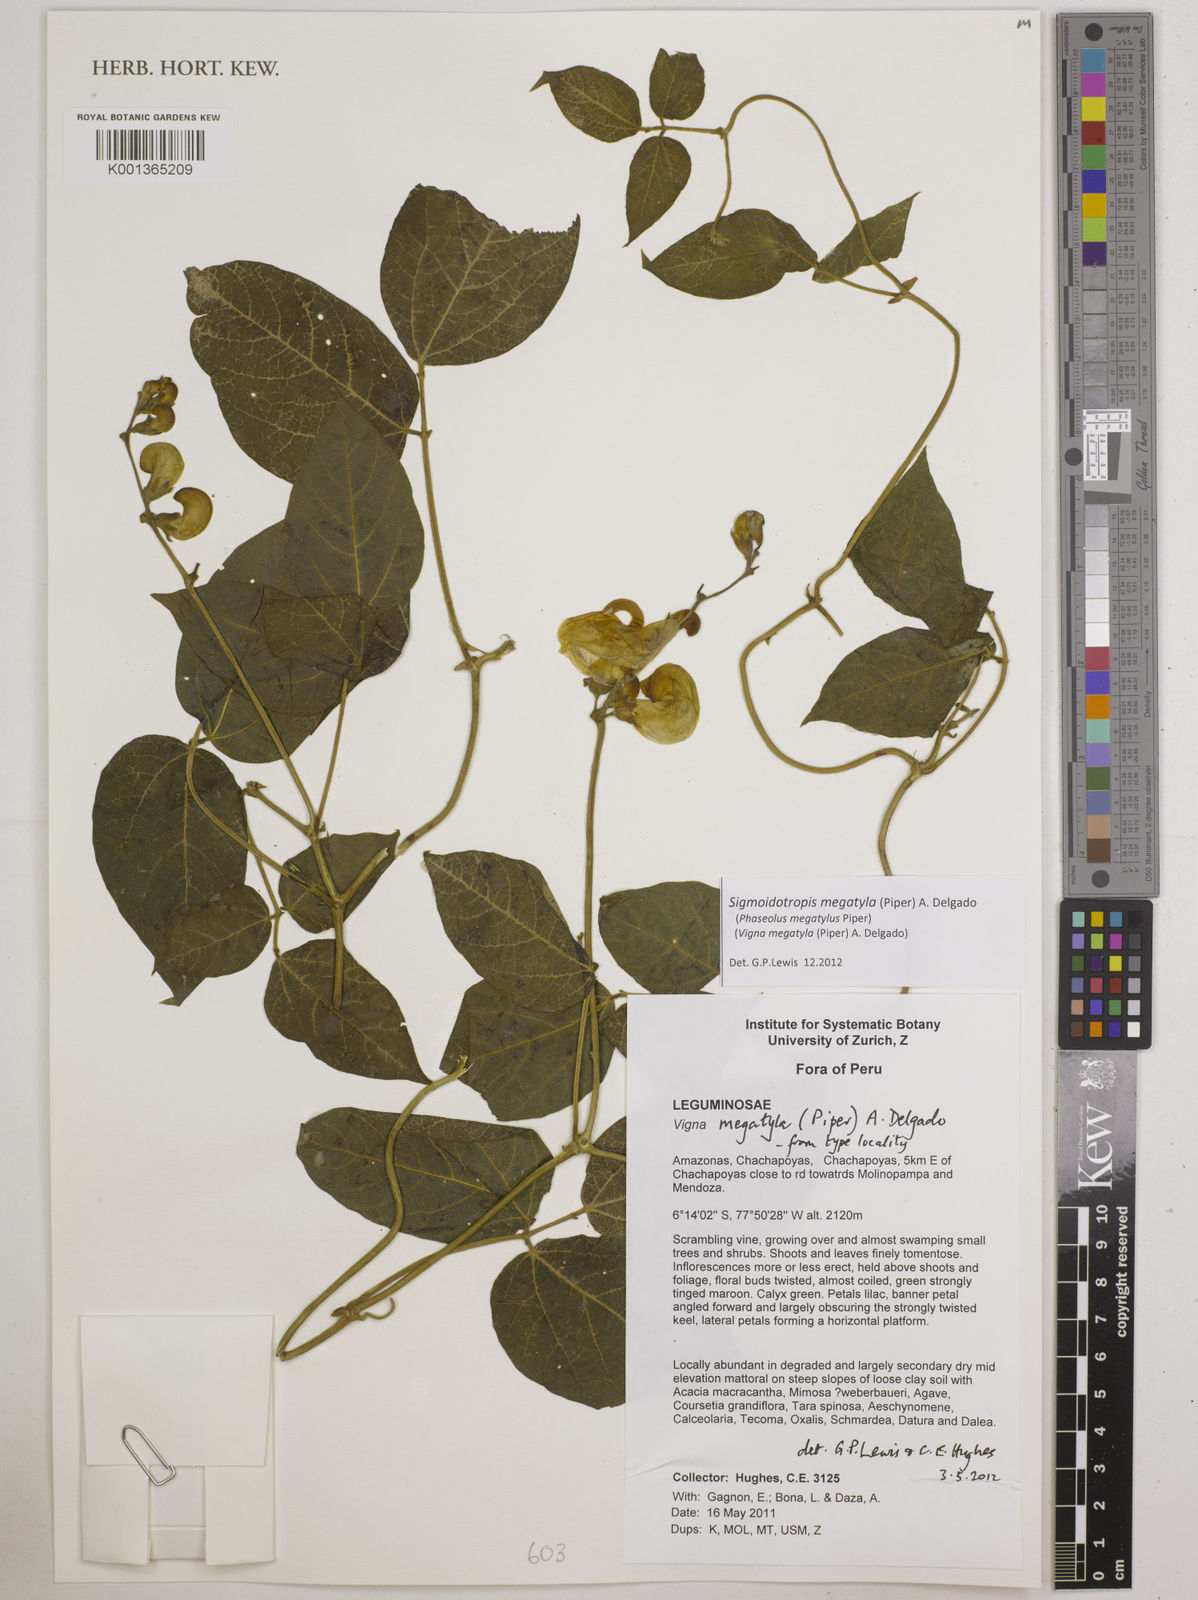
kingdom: Plantae
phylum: Tracheophyta
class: Magnoliopsida
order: Fabales
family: Fabaceae
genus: Sigmoidotropis
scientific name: Sigmoidotropis megatyla
